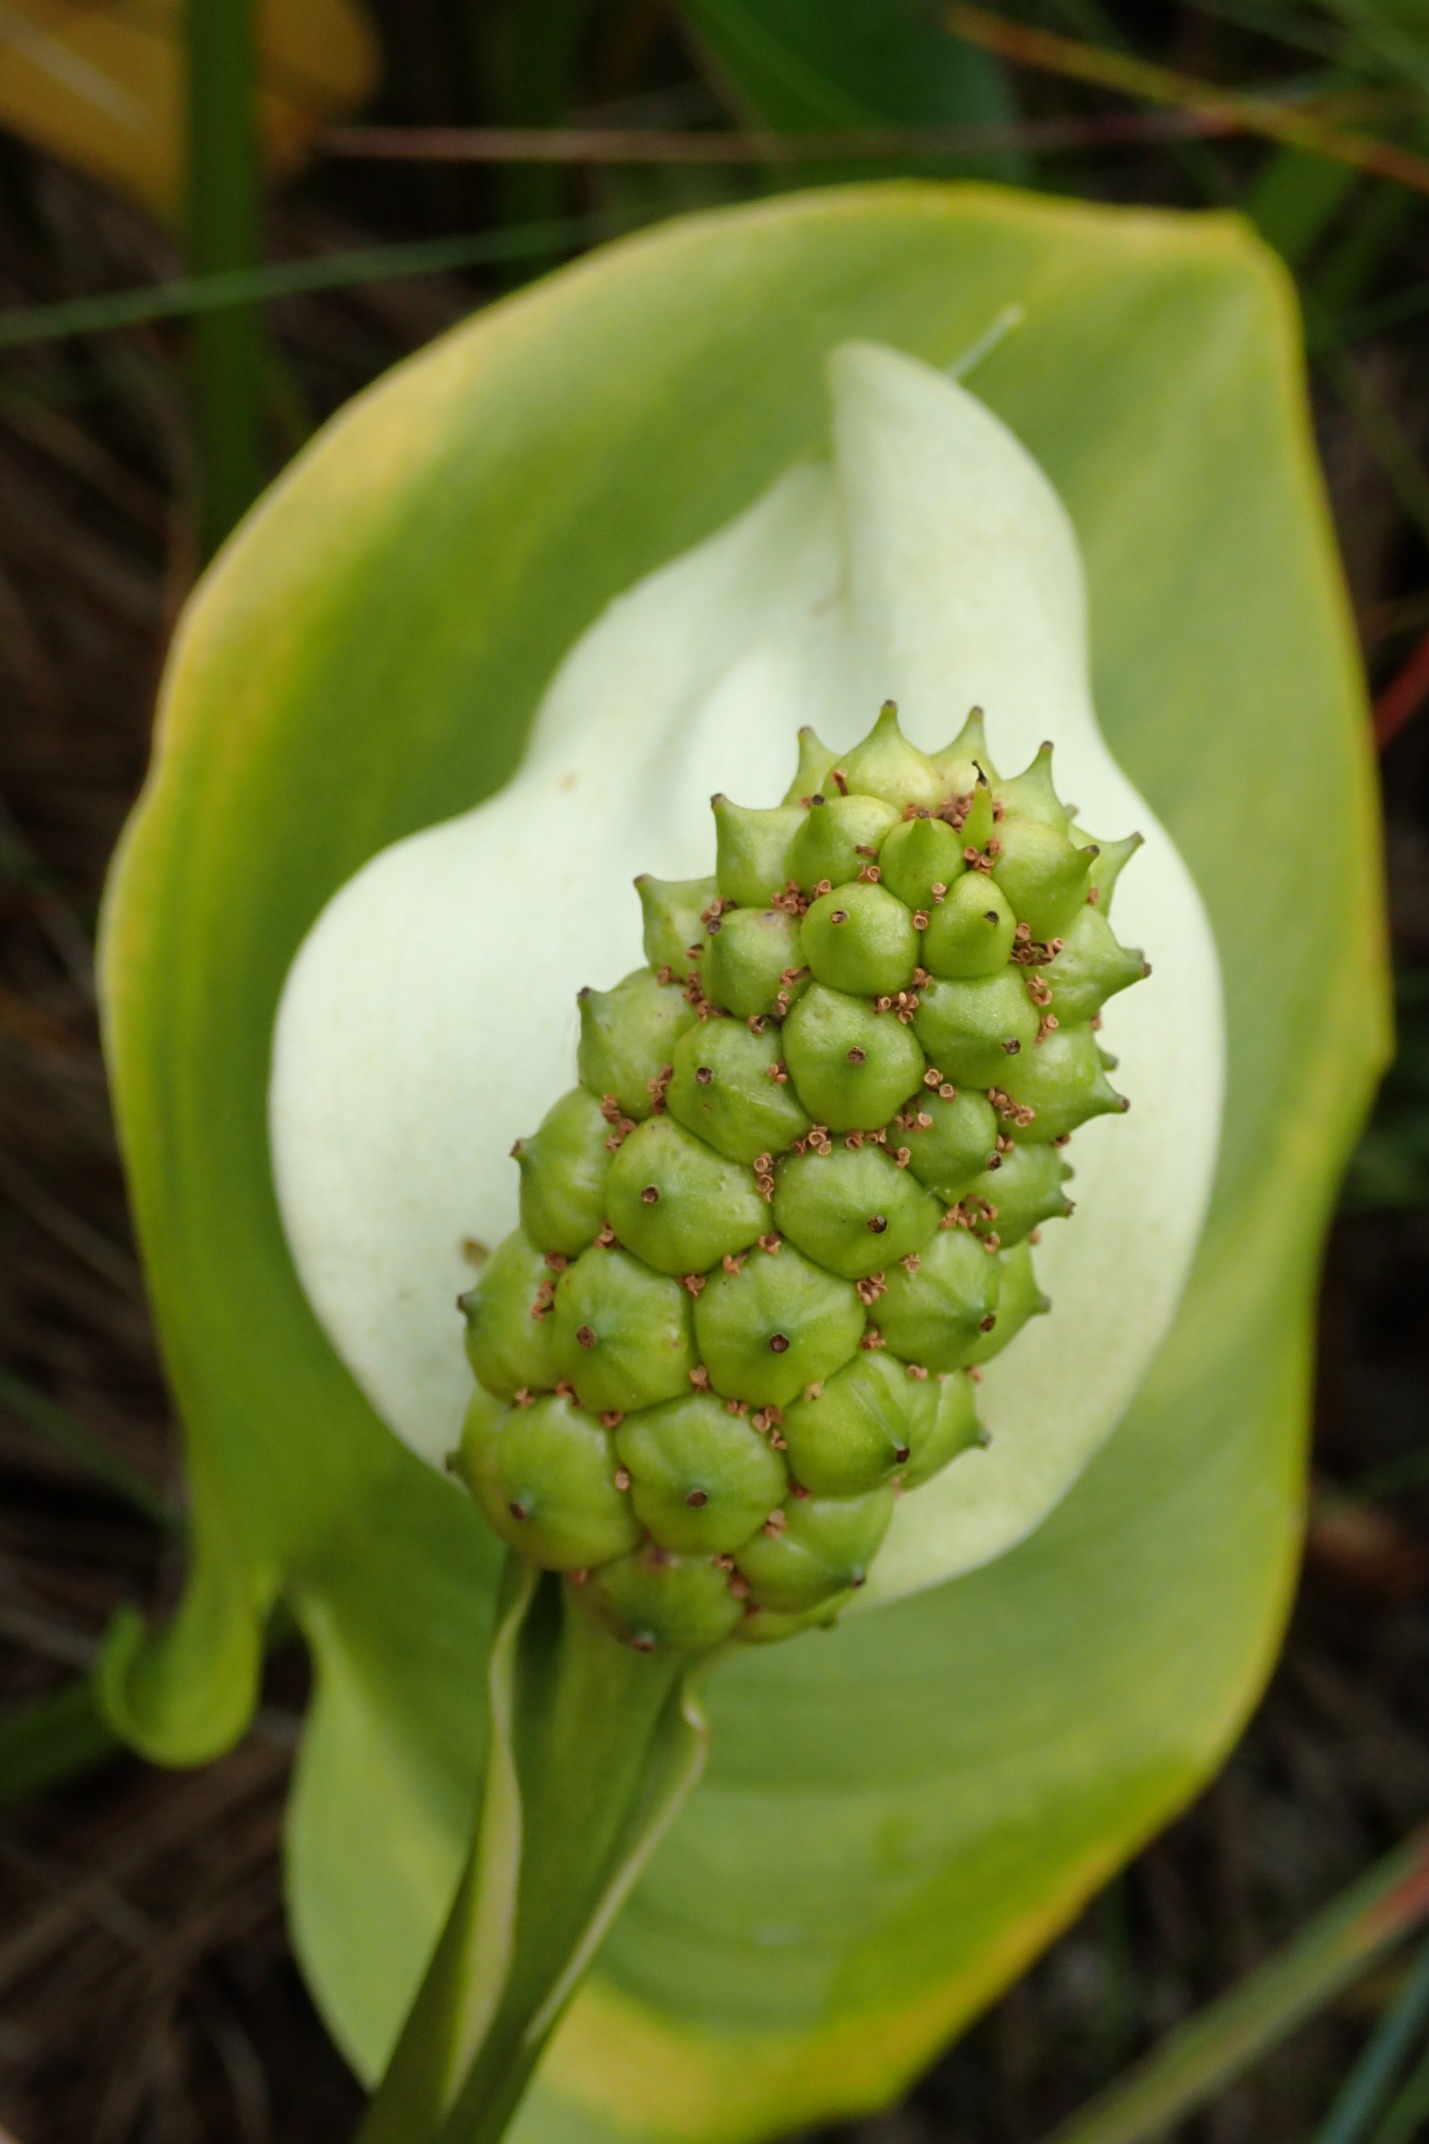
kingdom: Plantae
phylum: Tracheophyta
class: Liliopsida
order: Alismatales
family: Araceae
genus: Calla
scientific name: Calla palustris
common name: Kærmysse
